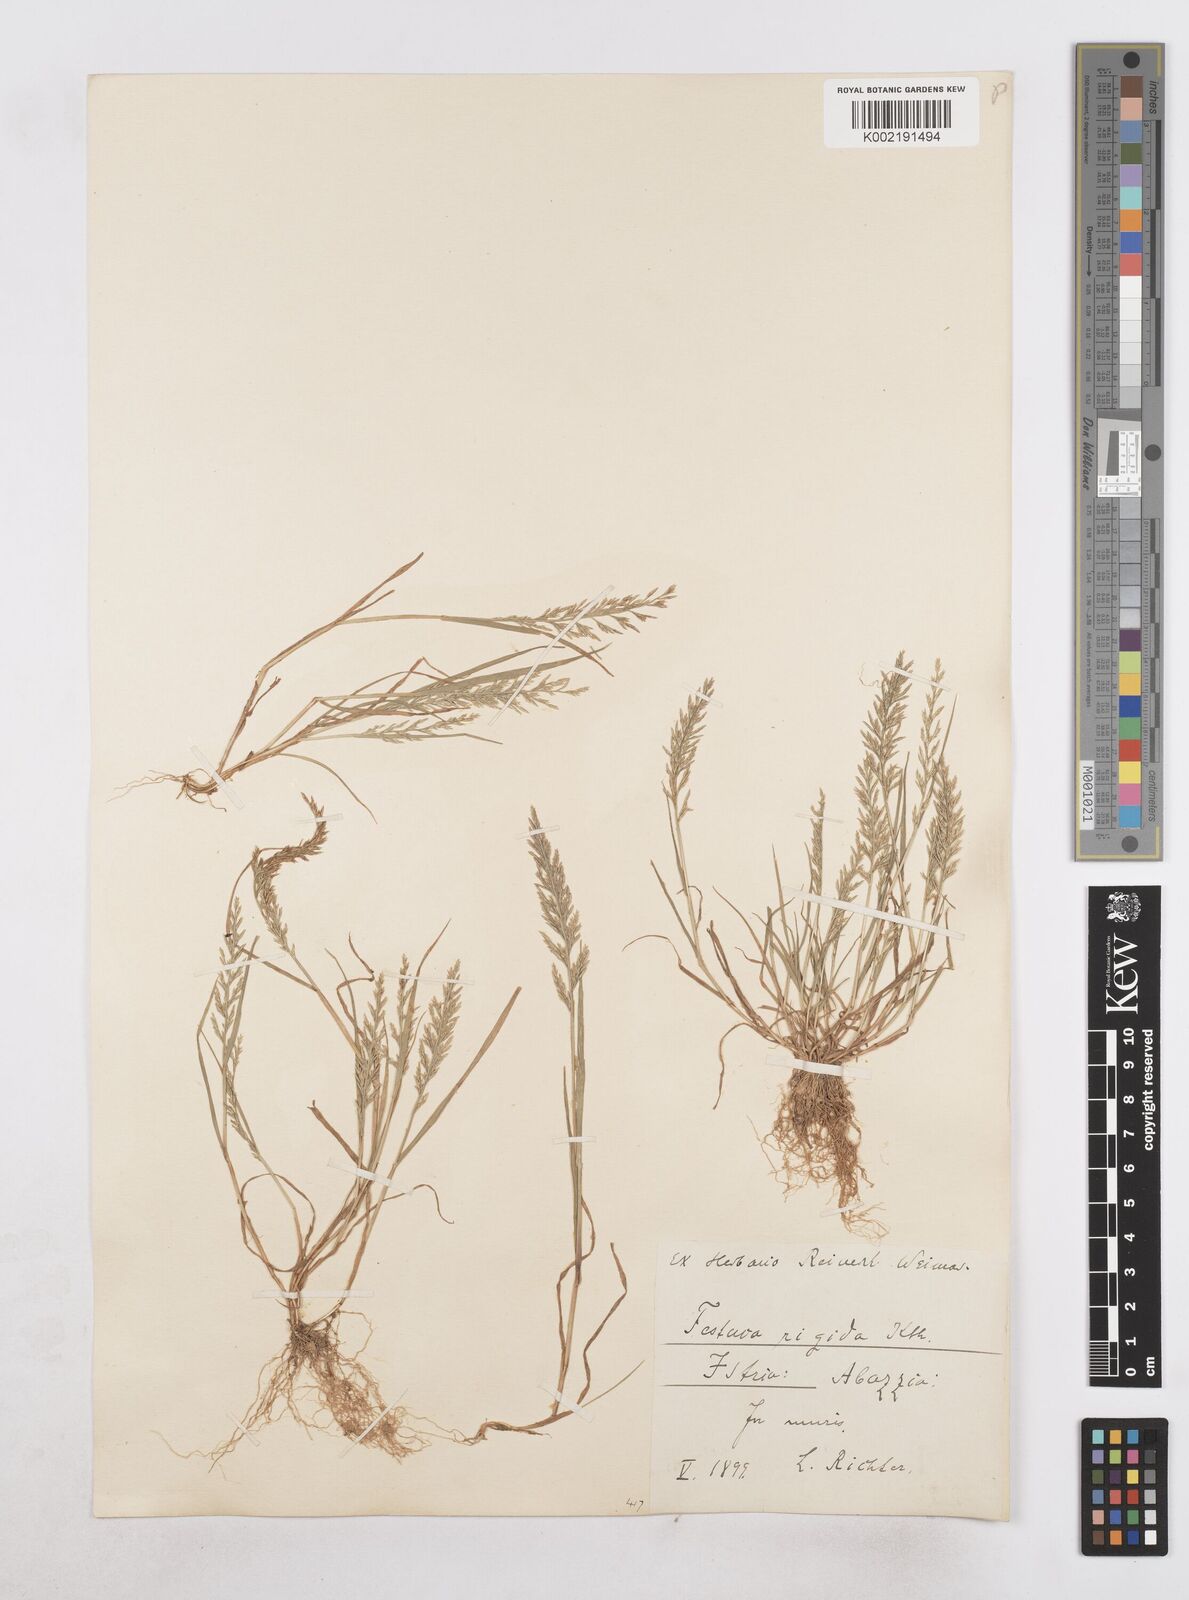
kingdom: Plantae
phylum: Tracheophyta
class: Liliopsida
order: Poales
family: Poaceae
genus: Catapodium
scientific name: Catapodium rigidum
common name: Fern-grass
